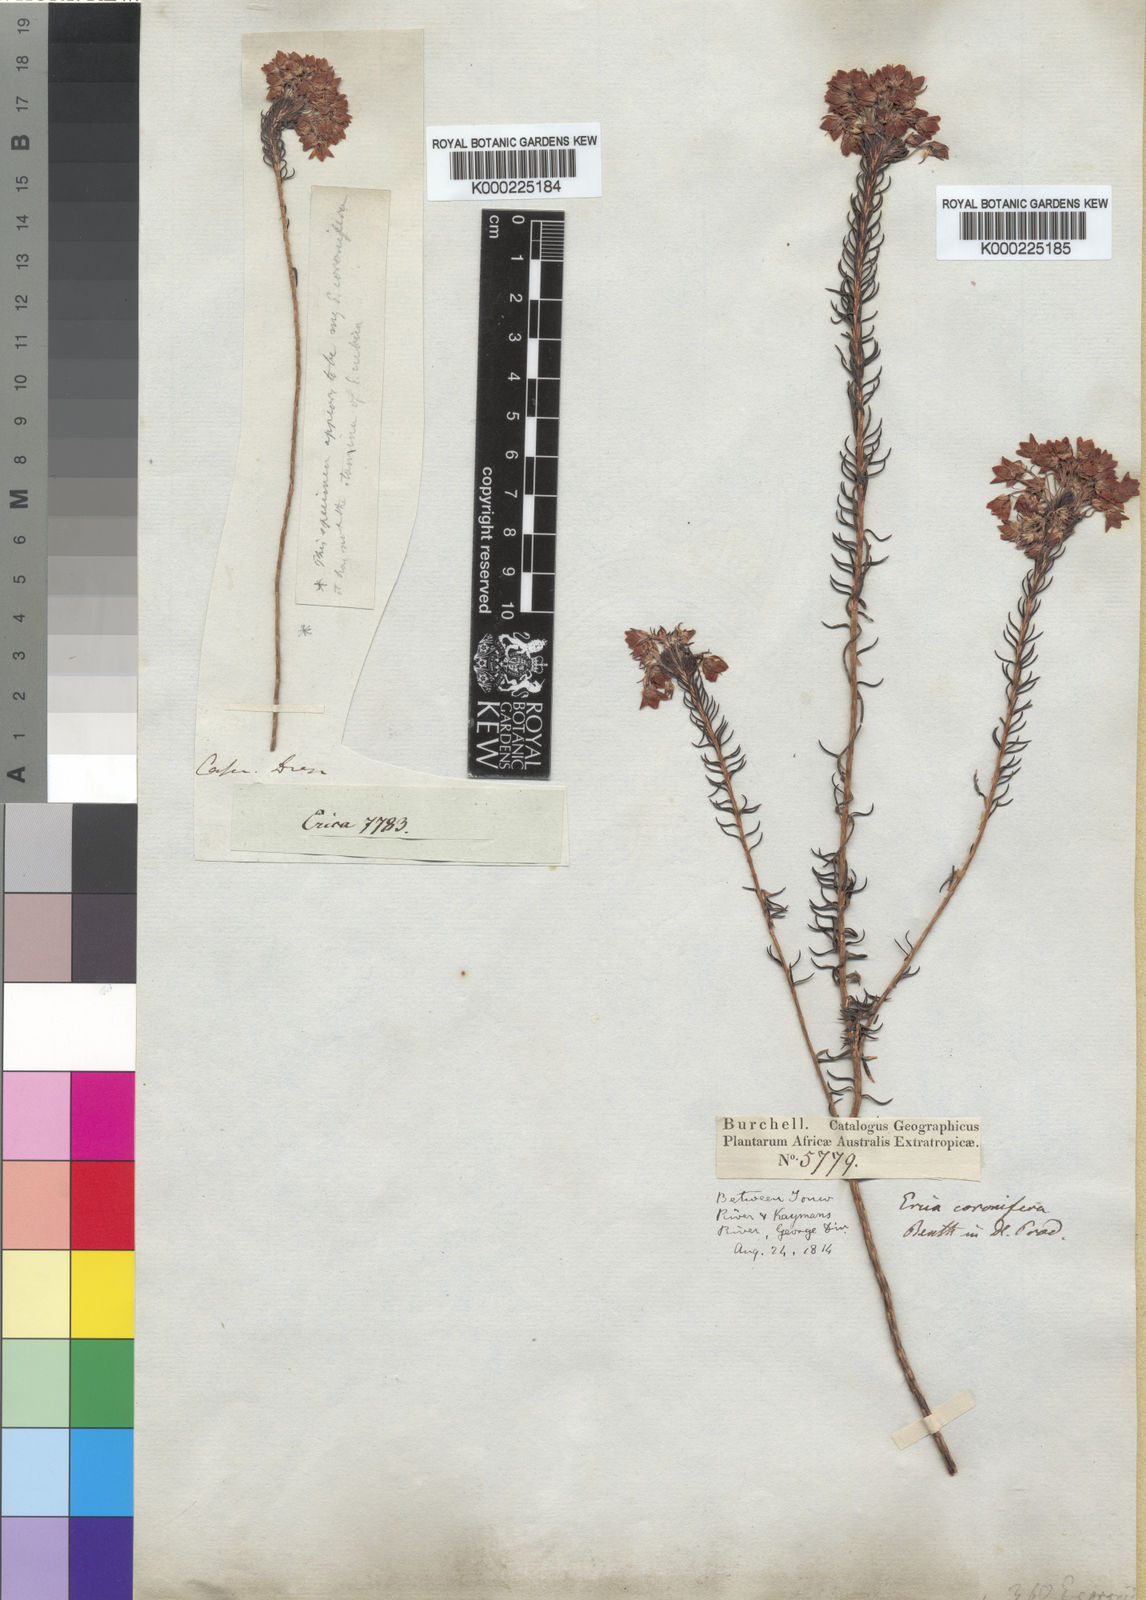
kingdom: Plantae
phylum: Tracheophyta
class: Magnoliopsida
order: Ericales
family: Ericaceae
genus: Erica
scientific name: Erica
